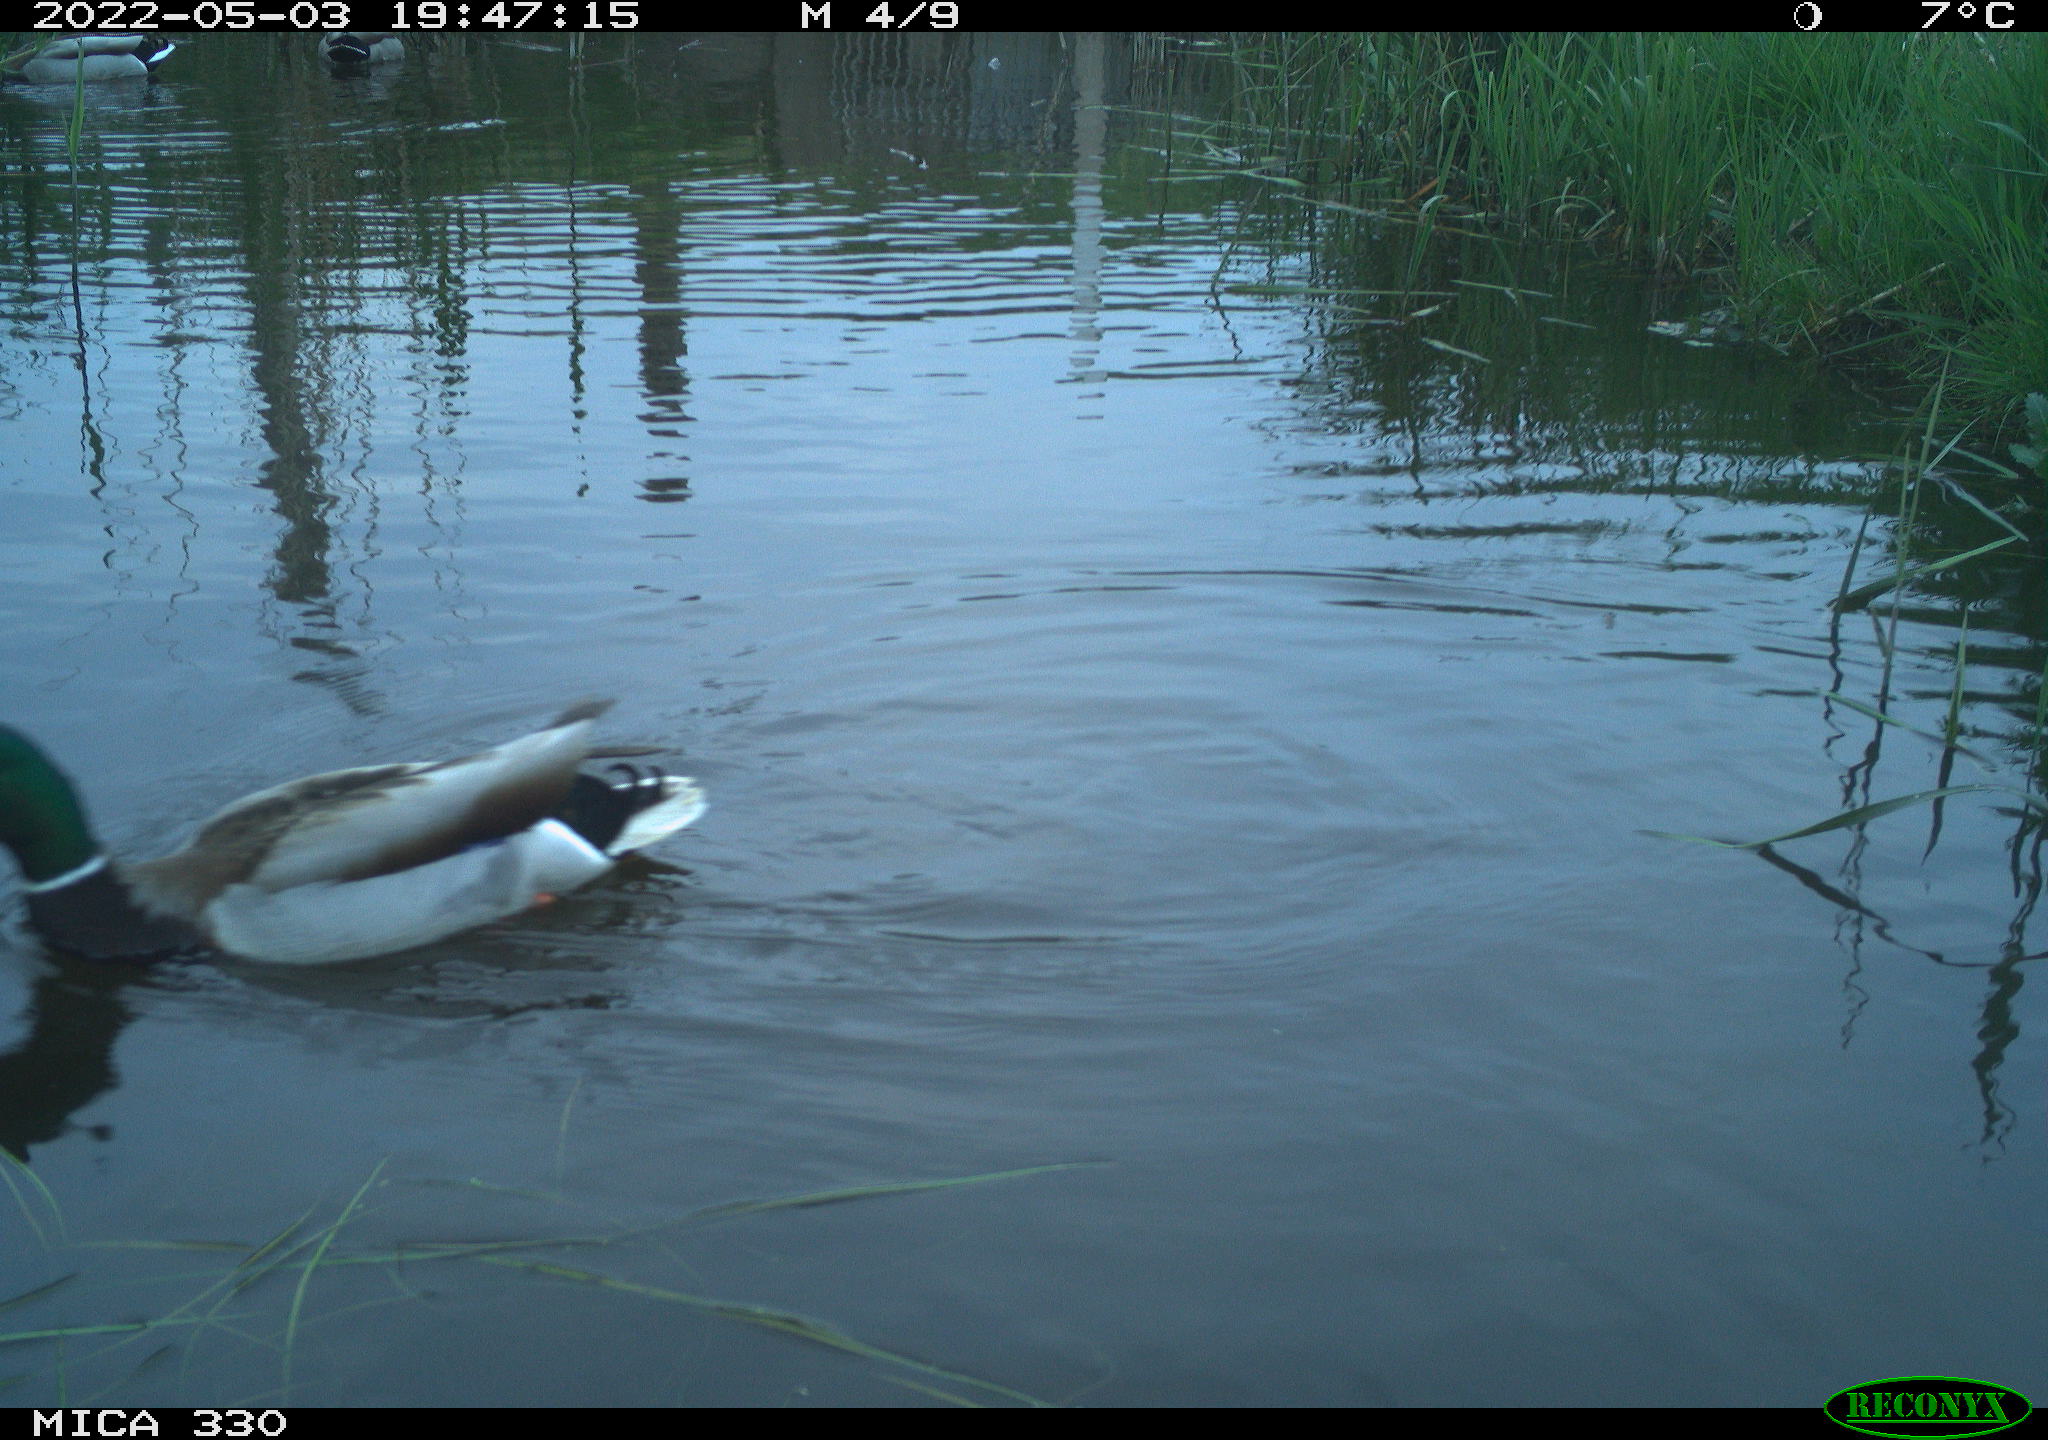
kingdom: Animalia
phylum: Chordata
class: Aves
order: Anseriformes
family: Anatidae
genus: Anas
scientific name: Anas platyrhynchos
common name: Mallard
